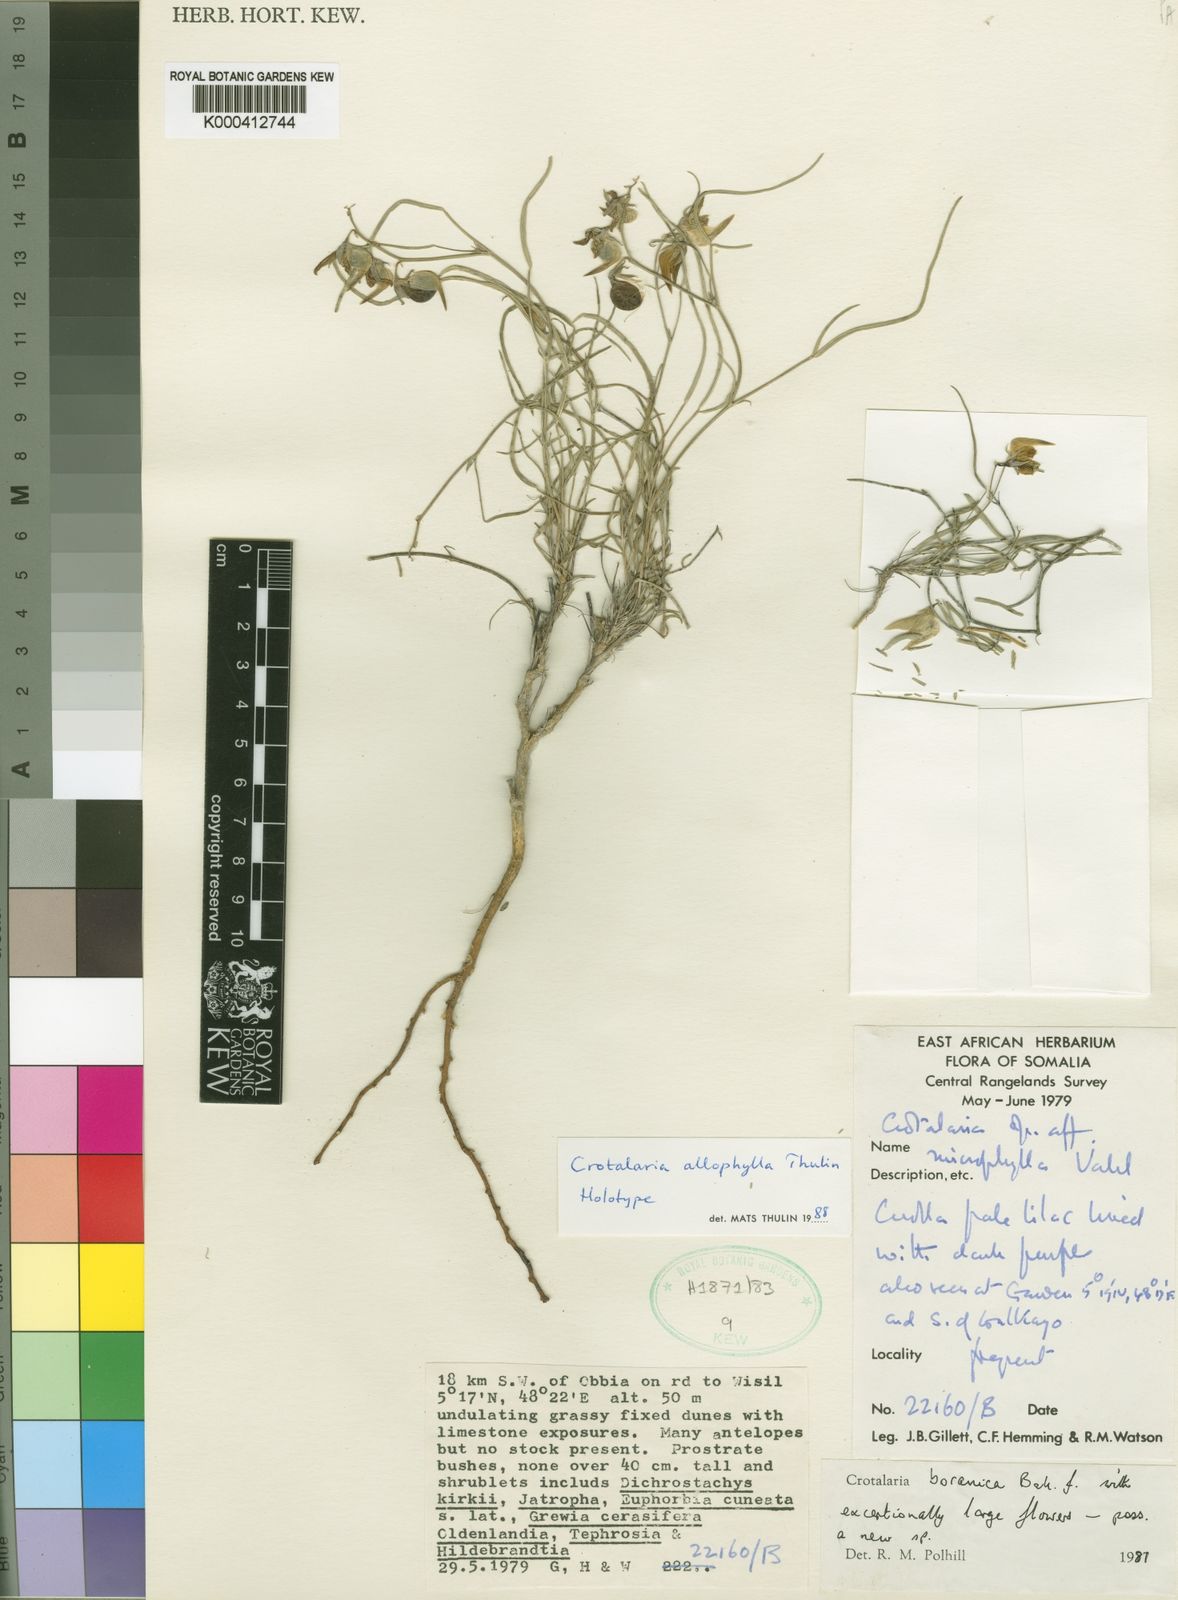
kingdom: Plantae
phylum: Tracheophyta
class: Magnoliopsida
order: Fabales
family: Fabaceae
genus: Crotalaria
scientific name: Crotalaria allophylla
